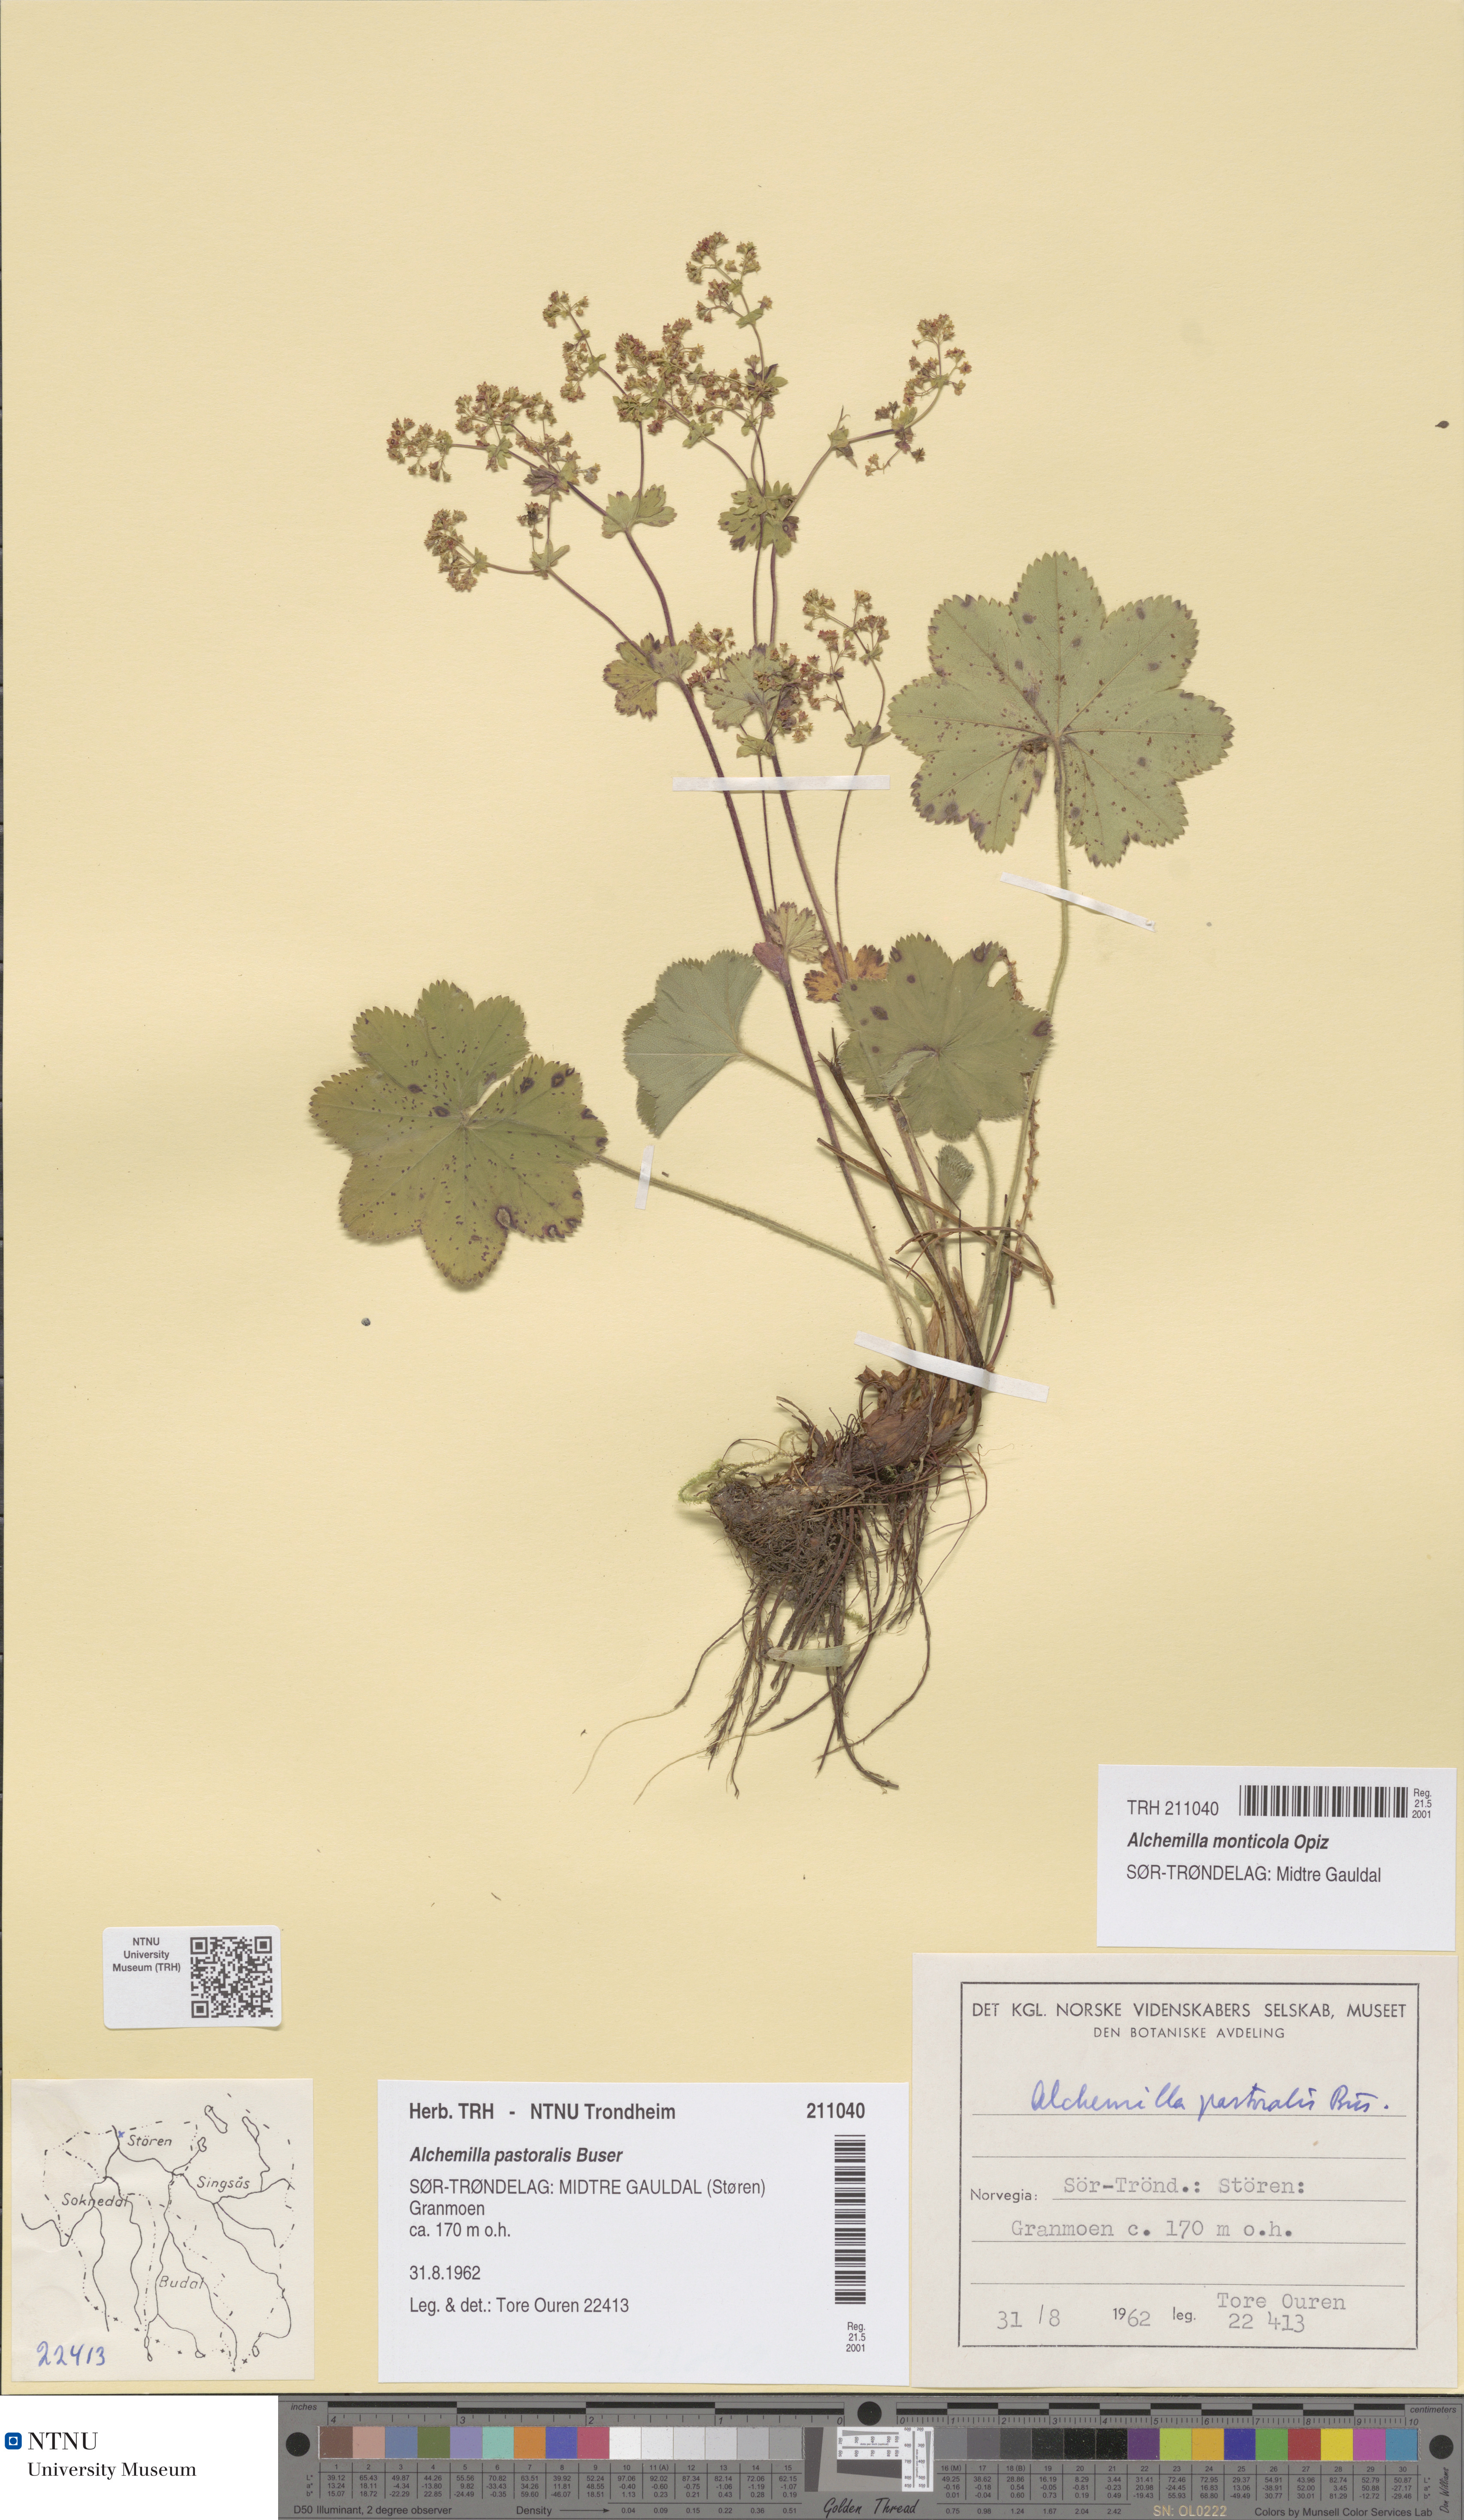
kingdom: Plantae
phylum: Tracheophyta
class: Magnoliopsida
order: Rosales
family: Rosaceae
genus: Alchemilla
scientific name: Alchemilla monticola
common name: Hairy lady's mantle
